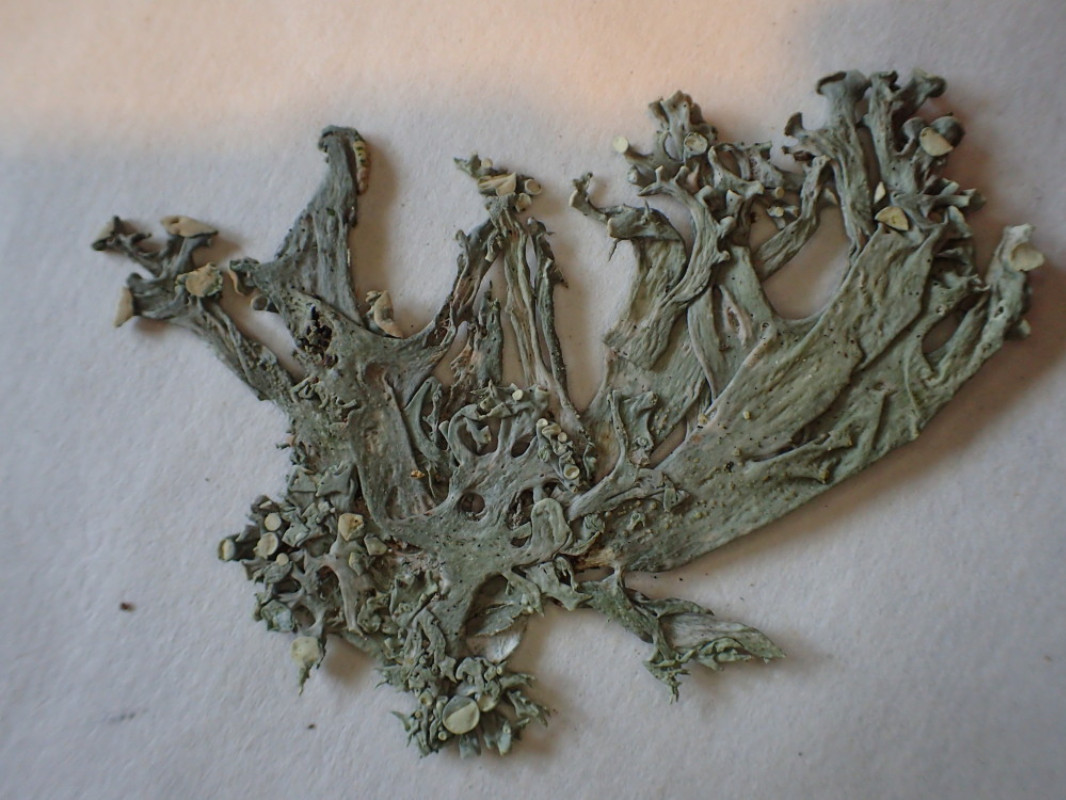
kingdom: Fungi
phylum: Ascomycota
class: Lecanoromycetes
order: Lecanorales
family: Ramalinaceae
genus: Ramalina
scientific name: Ramalina fastigiata
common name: tue-grenlav
